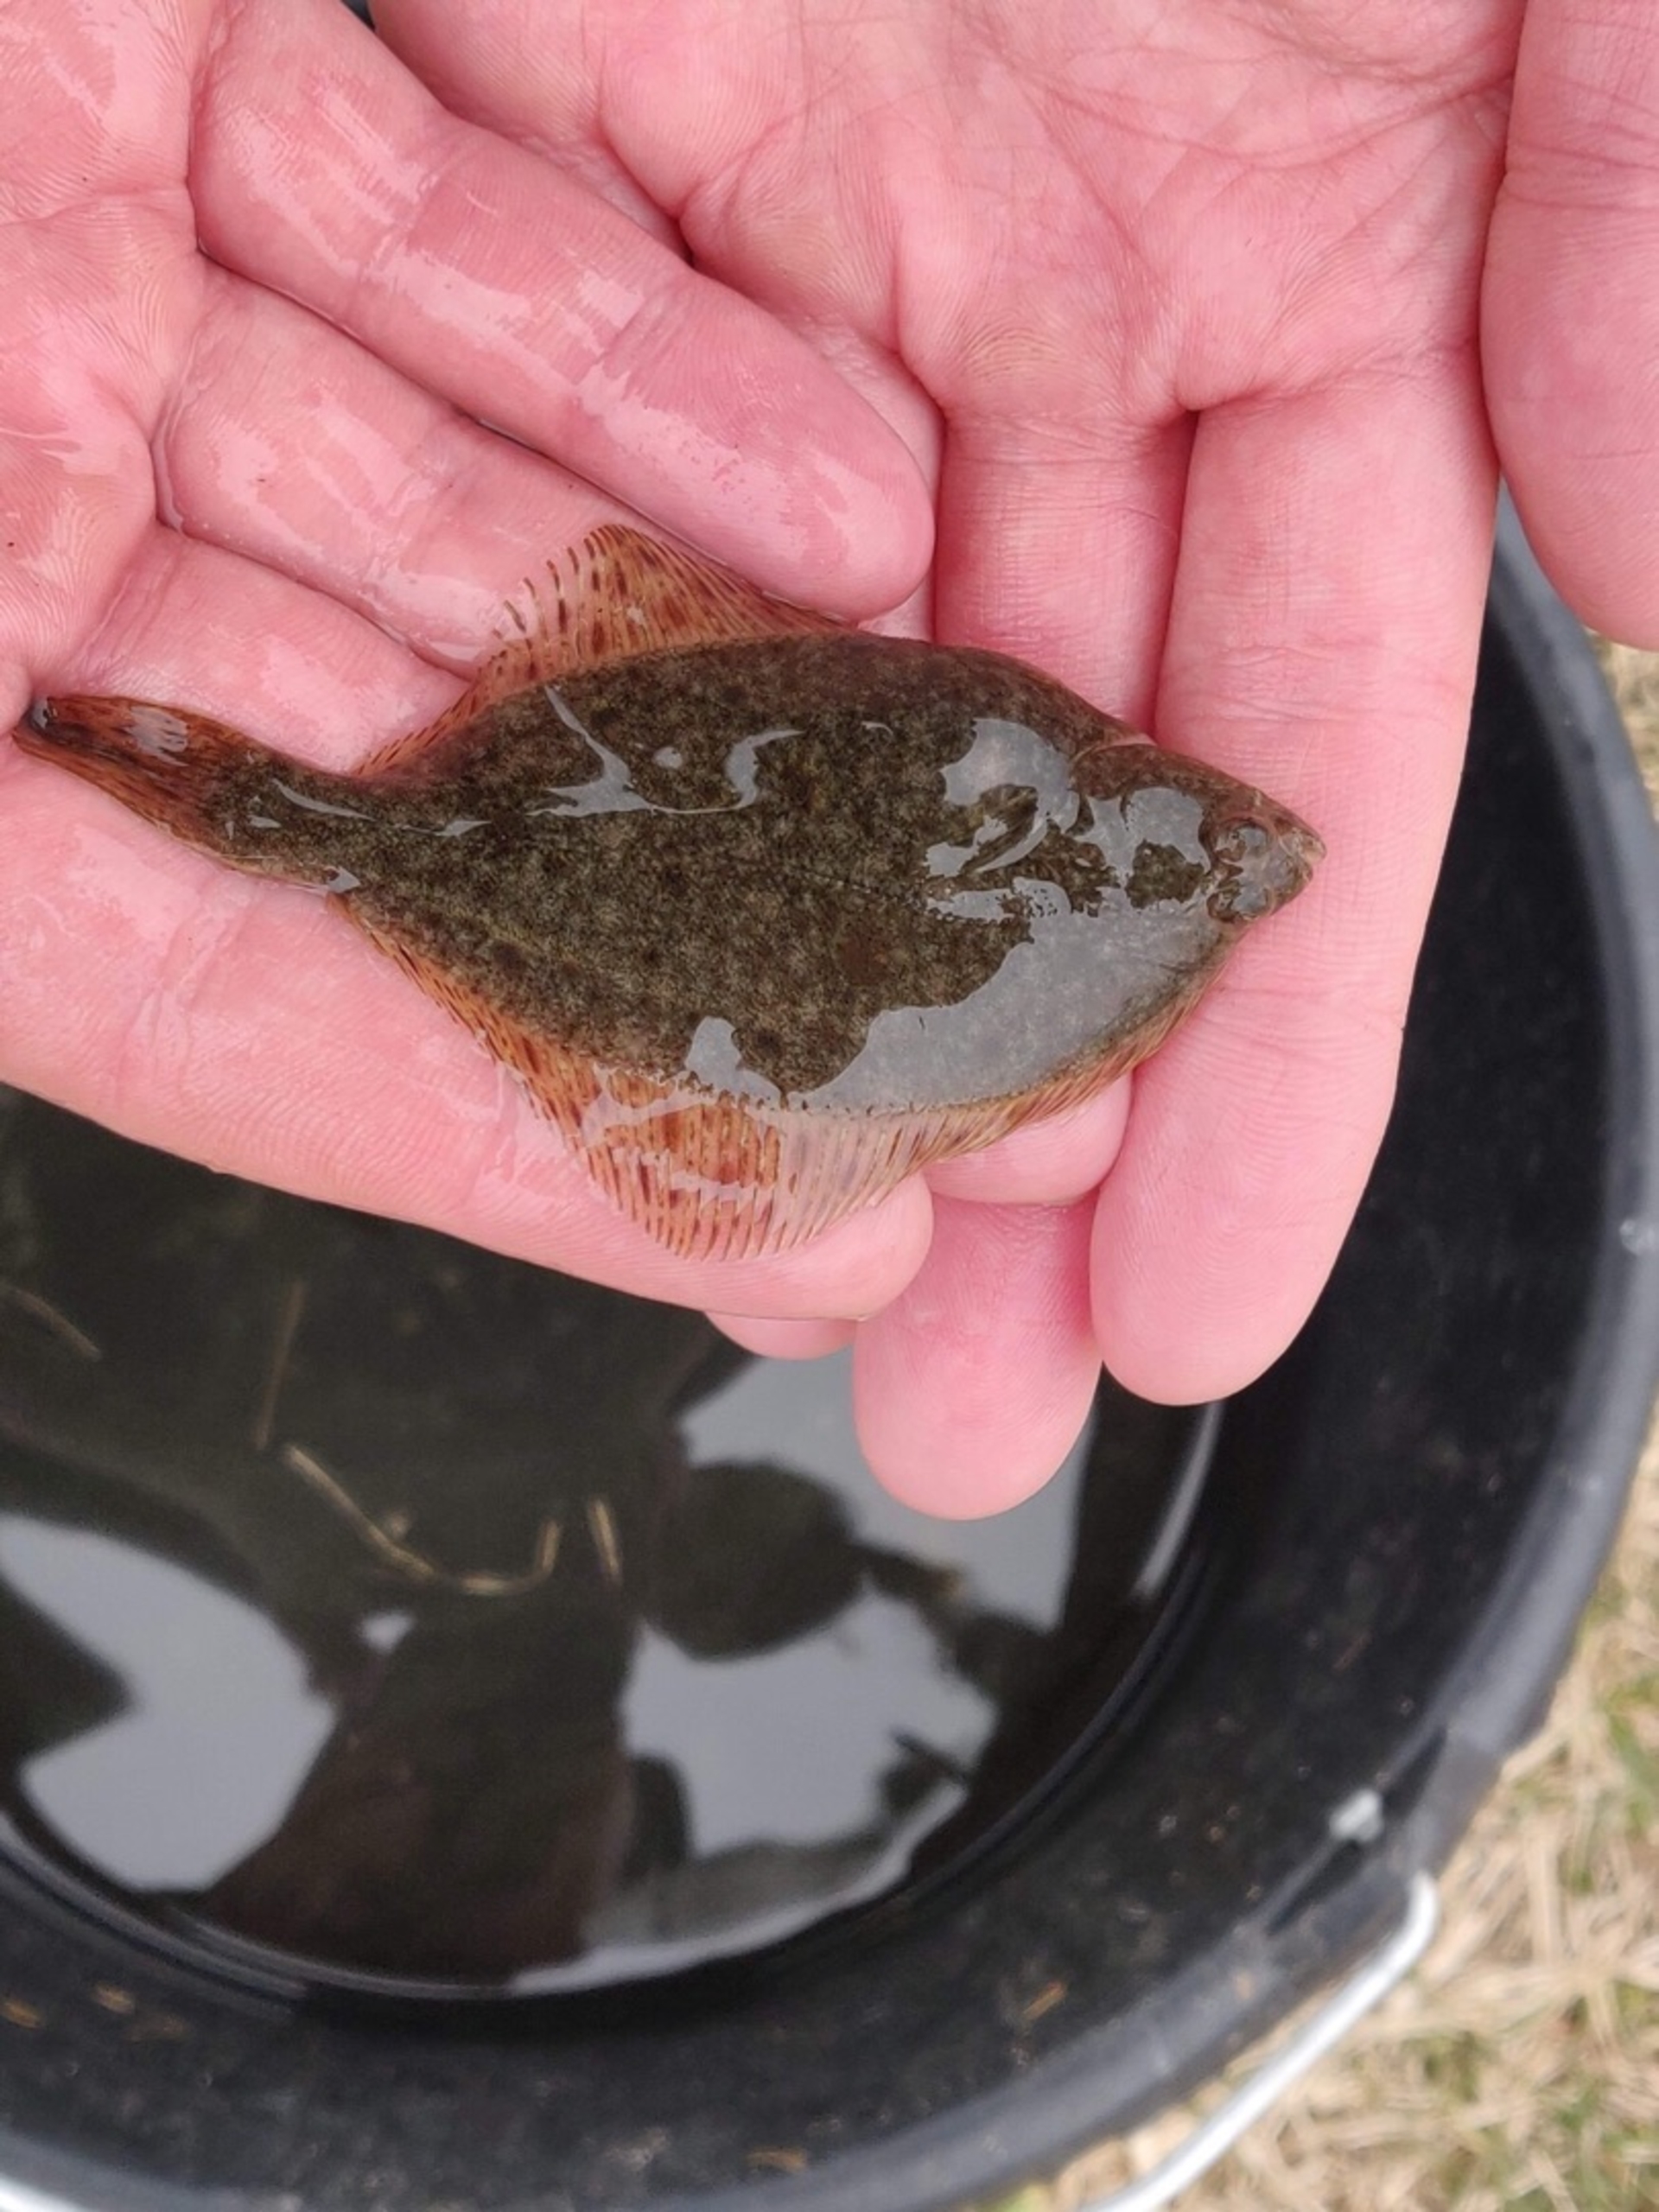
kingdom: Animalia
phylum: Chordata
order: Pleuronectiformes
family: Pleuronectidae
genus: Platichthys
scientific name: Platichthys flesus
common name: Skrubbe
